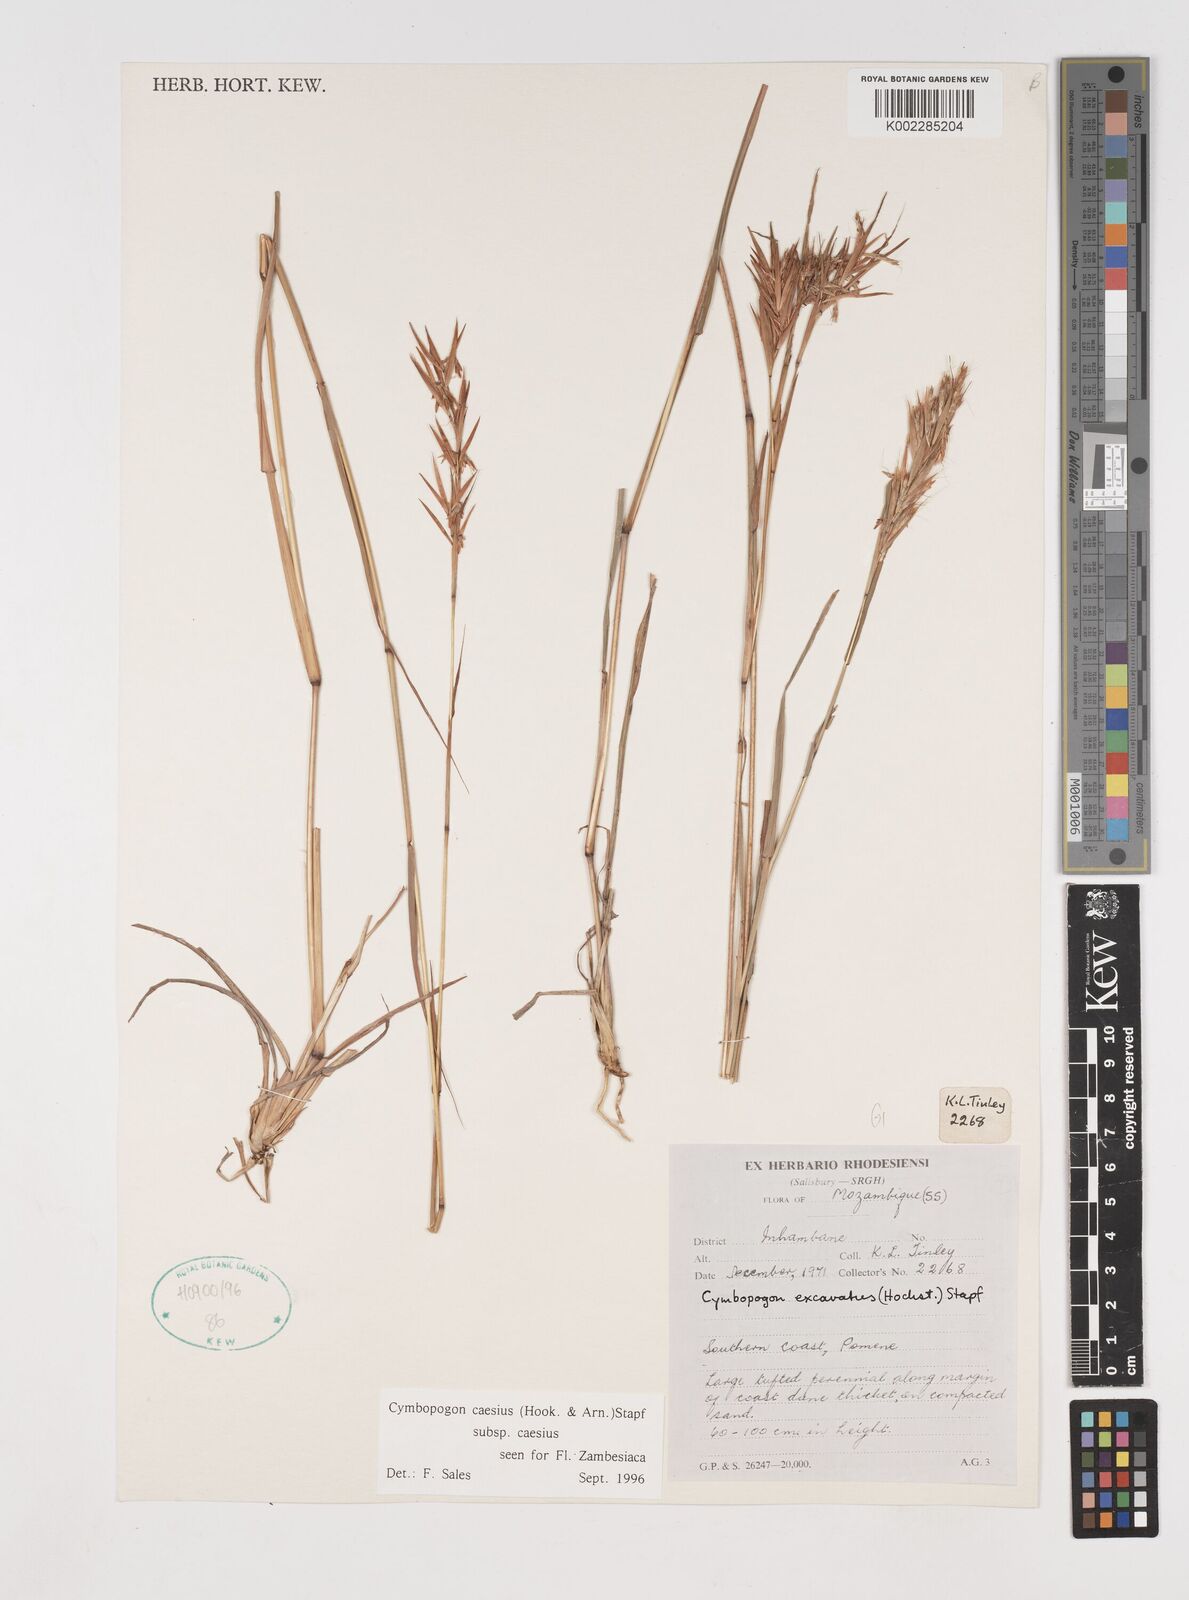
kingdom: Plantae
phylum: Tracheophyta
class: Liliopsida
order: Poales
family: Poaceae
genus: Cymbopogon
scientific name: Cymbopogon caesius
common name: Kachi grass
